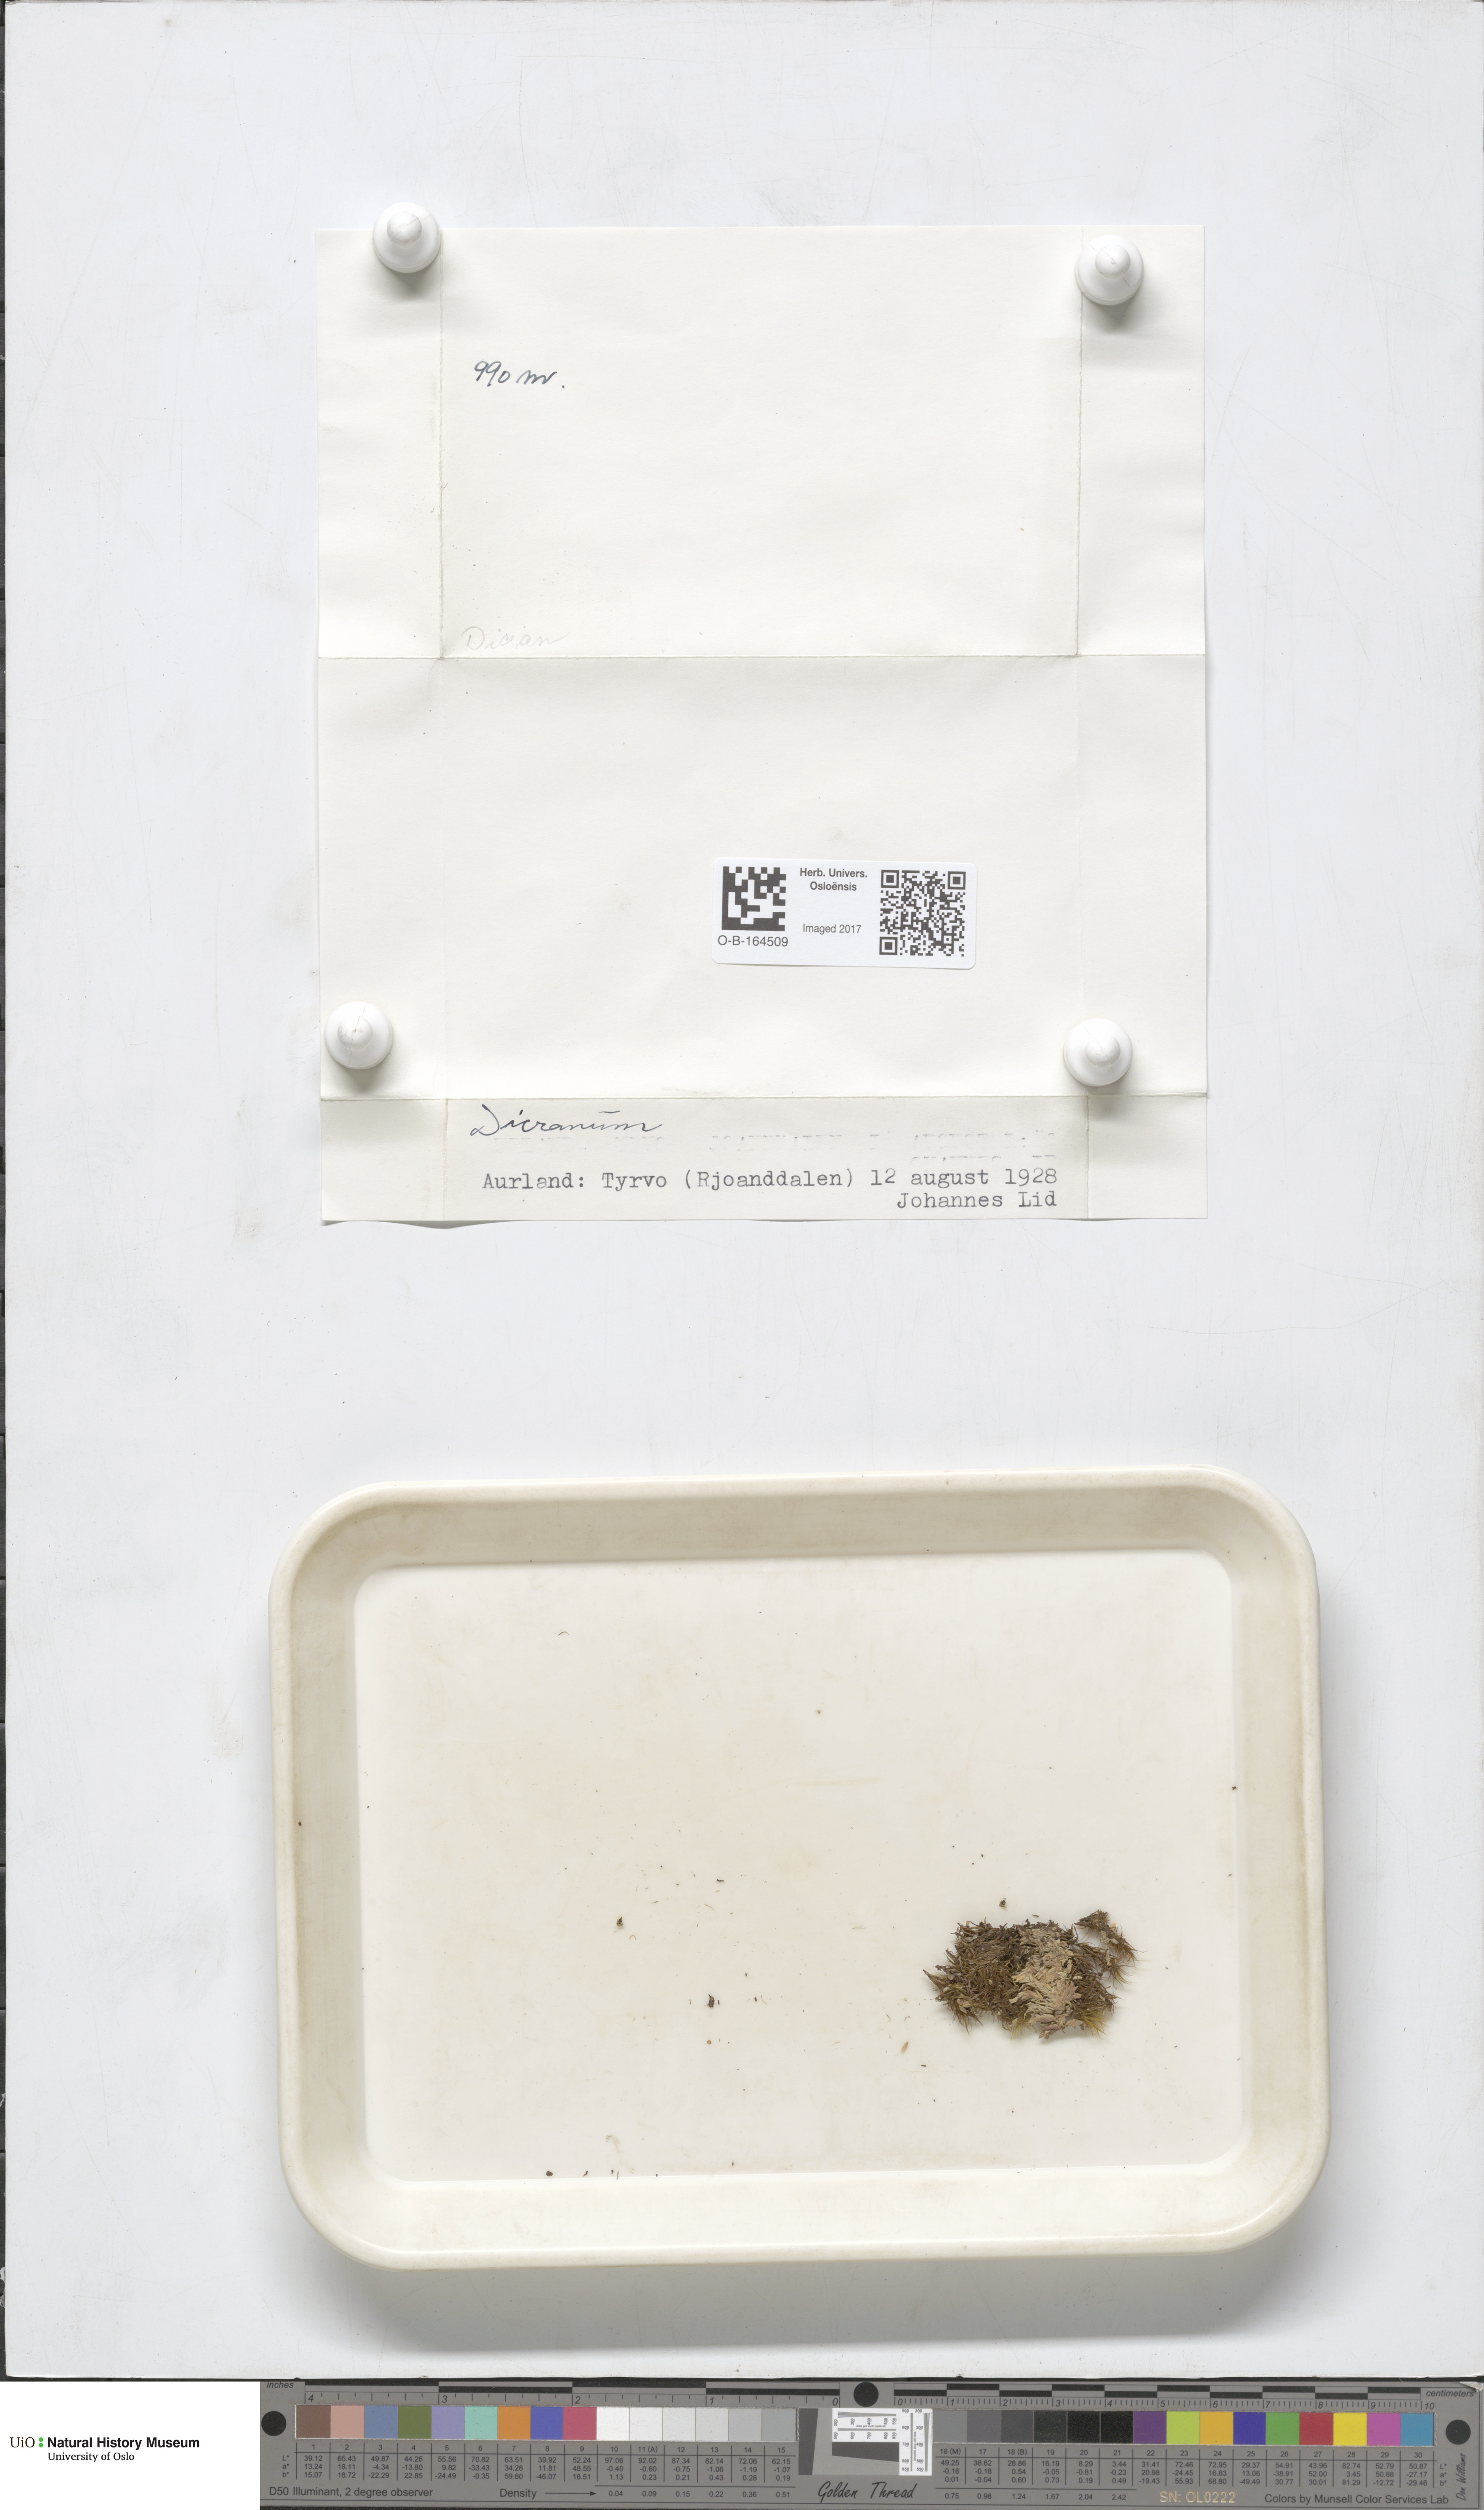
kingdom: Plantae
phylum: Bryophyta
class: Bryopsida
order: Dicranales
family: Dicranaceae
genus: Dicranum
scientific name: Dicranum
